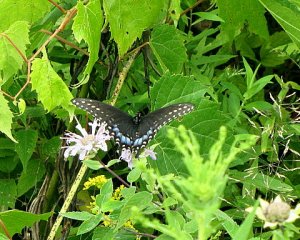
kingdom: Animalia
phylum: Arthropoda
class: Insecta
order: Lepidoptera
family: Papilionidae
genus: Papilio
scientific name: Papilio polyxenes
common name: Black Swallowtail
